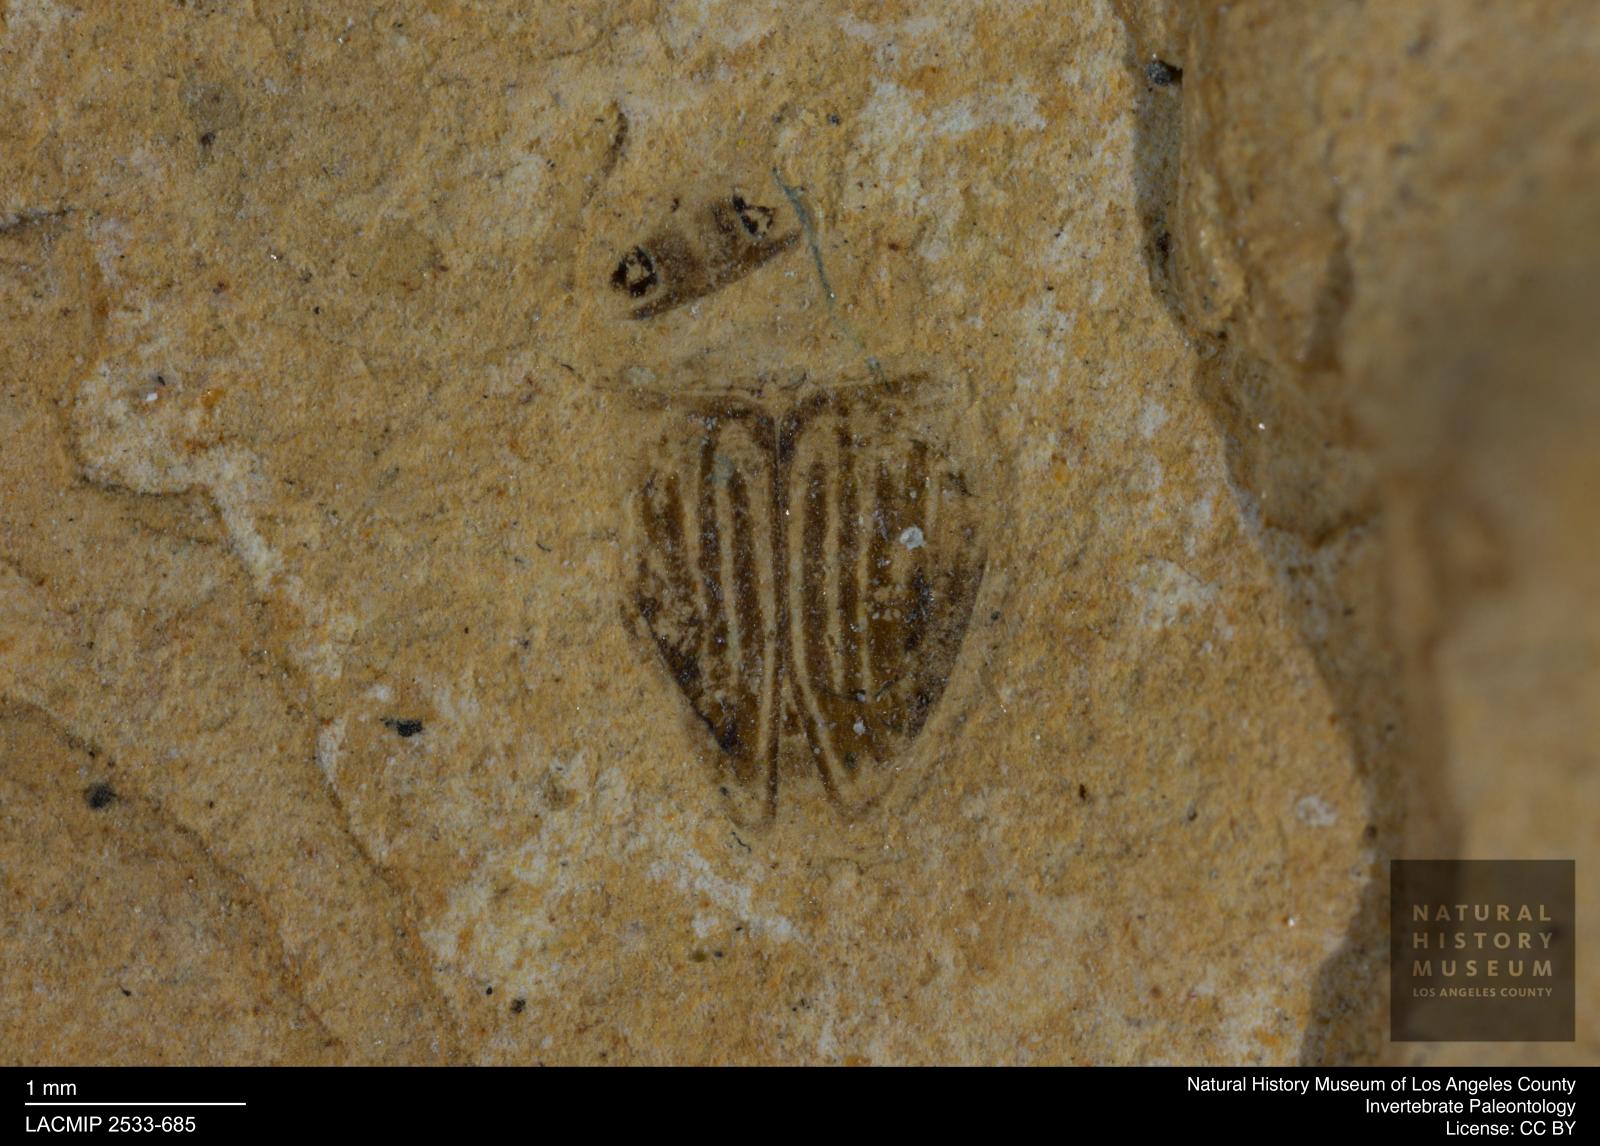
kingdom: Animalia
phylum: Arthropoda
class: Insecta
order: Coleoptera
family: Dytiscidae
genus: Oreodytes
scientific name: Oreodytes cryptolineatus
